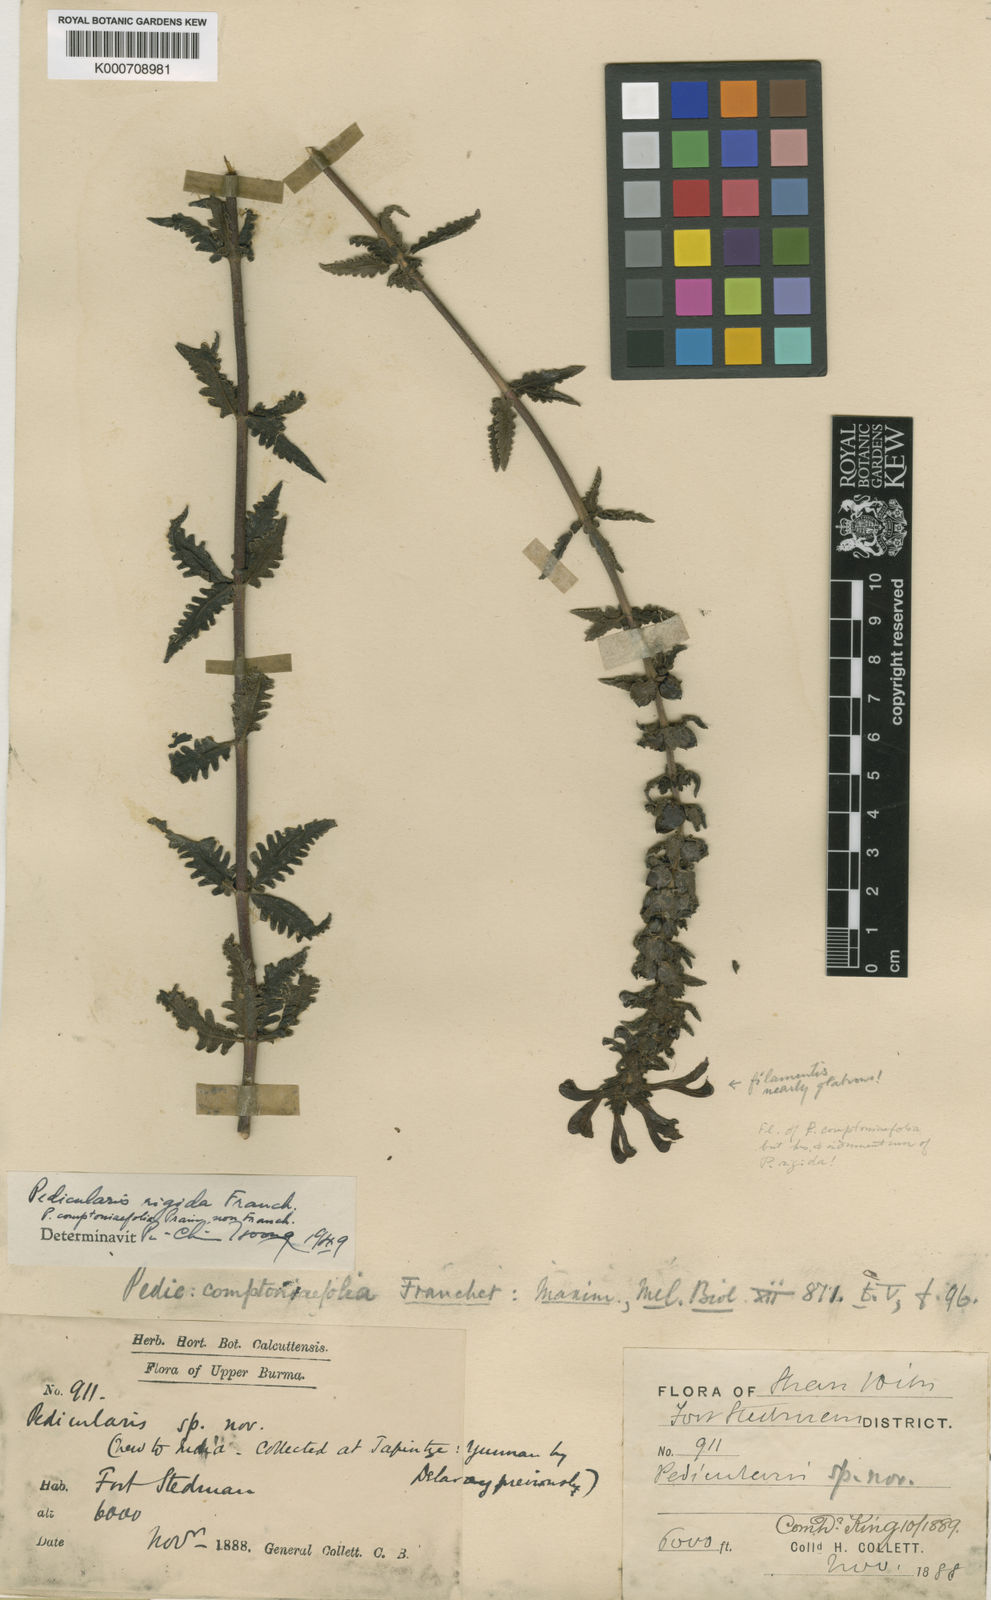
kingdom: Plantae
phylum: Tracheophyta
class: Magnoliopsida
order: Lamiales
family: Orobanchaceae
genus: Pedicularis
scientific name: Pedicularis rigida
